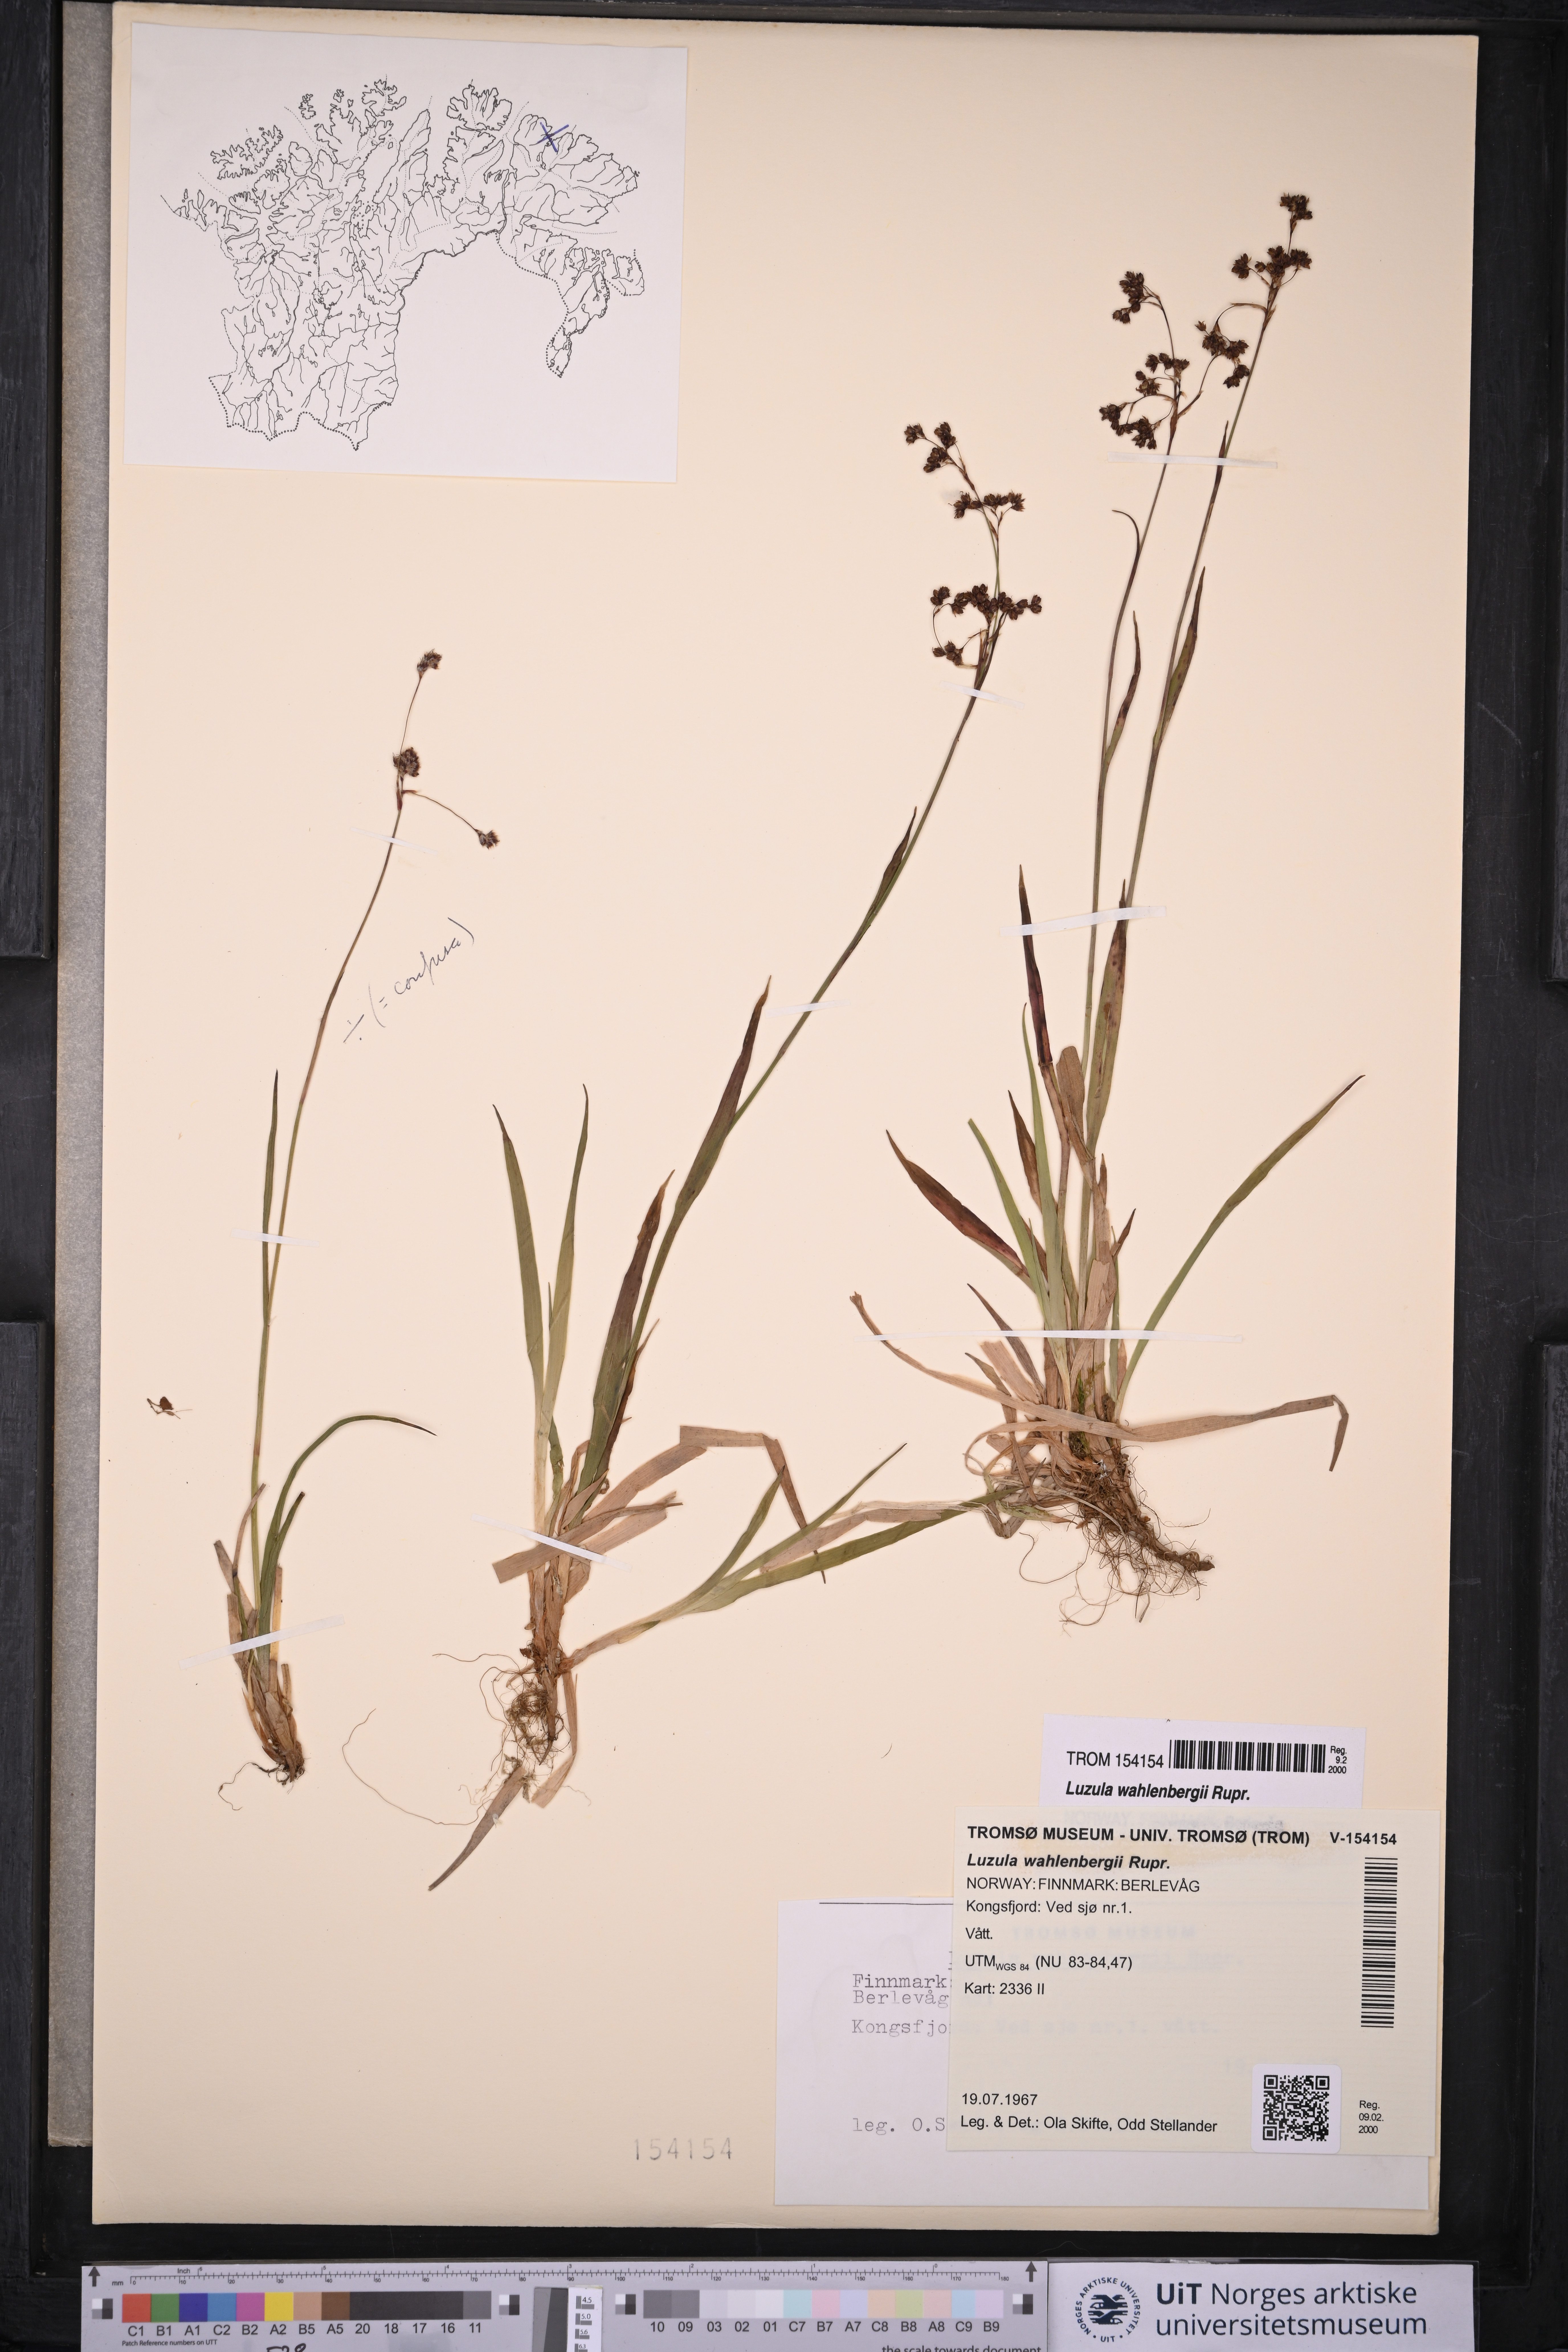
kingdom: Plantae
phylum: Tracheophyta
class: Liliopsida
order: Poales
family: Juncaceae
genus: Luzula
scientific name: Luzula wahlenbergii
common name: Wahlenberg's wood-rush
